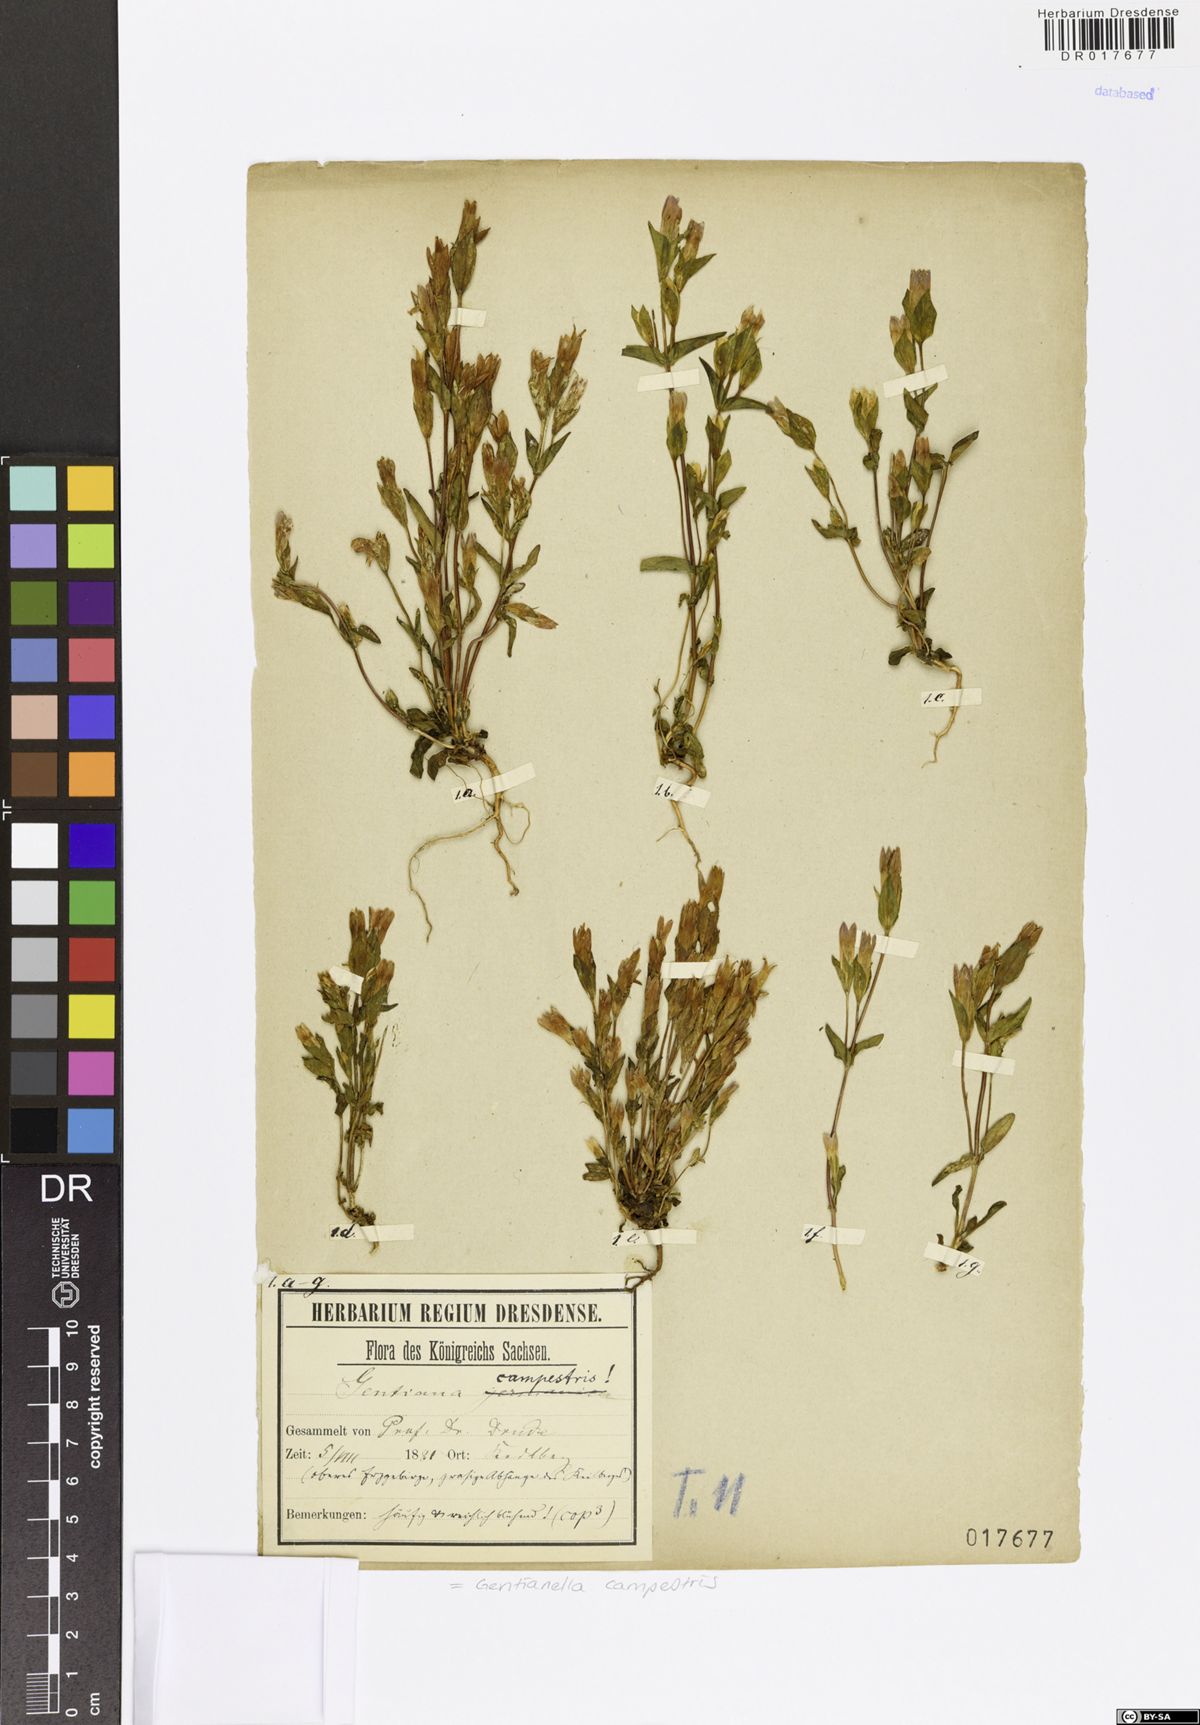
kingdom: Plantae
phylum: Tracheophyta
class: Magnoliopsida
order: Gentianales
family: Gentianaceae
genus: Gentianella
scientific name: Gentianella campestris
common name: Field gentian
